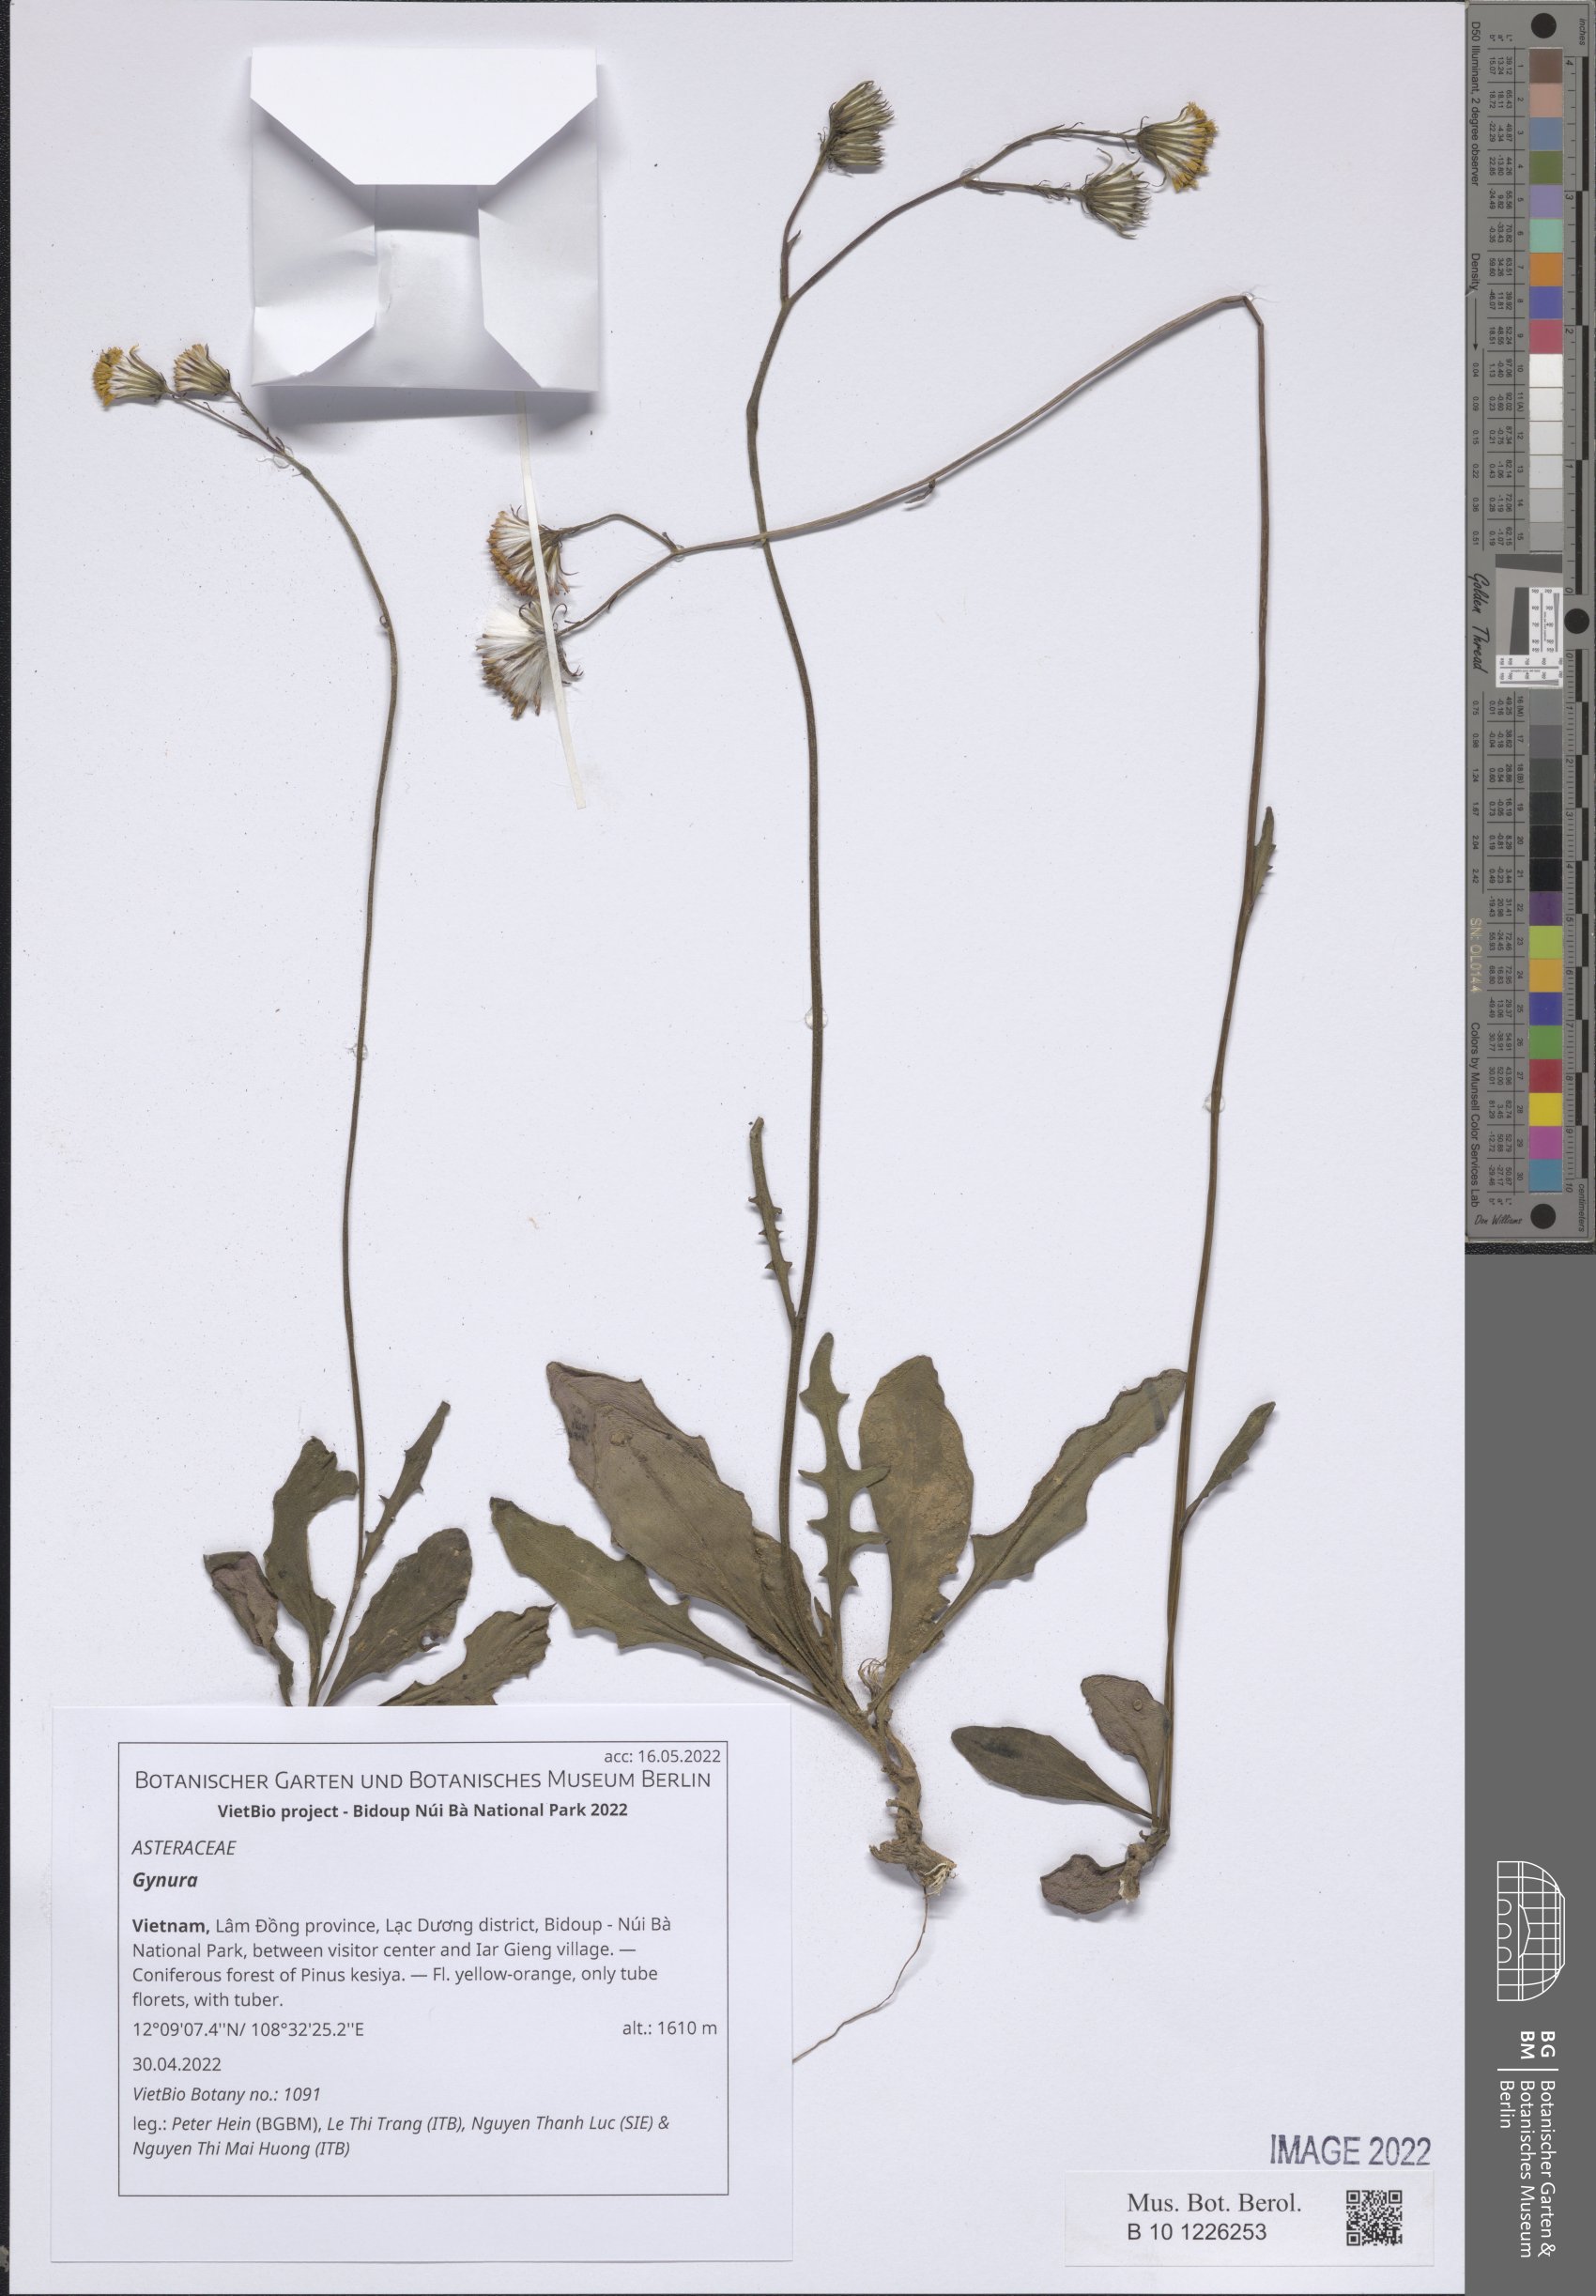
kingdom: Plantae
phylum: Tracheophyta
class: Magnoliopsida
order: Asterales
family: Asteraceae
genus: Gynura
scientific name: Gynura
